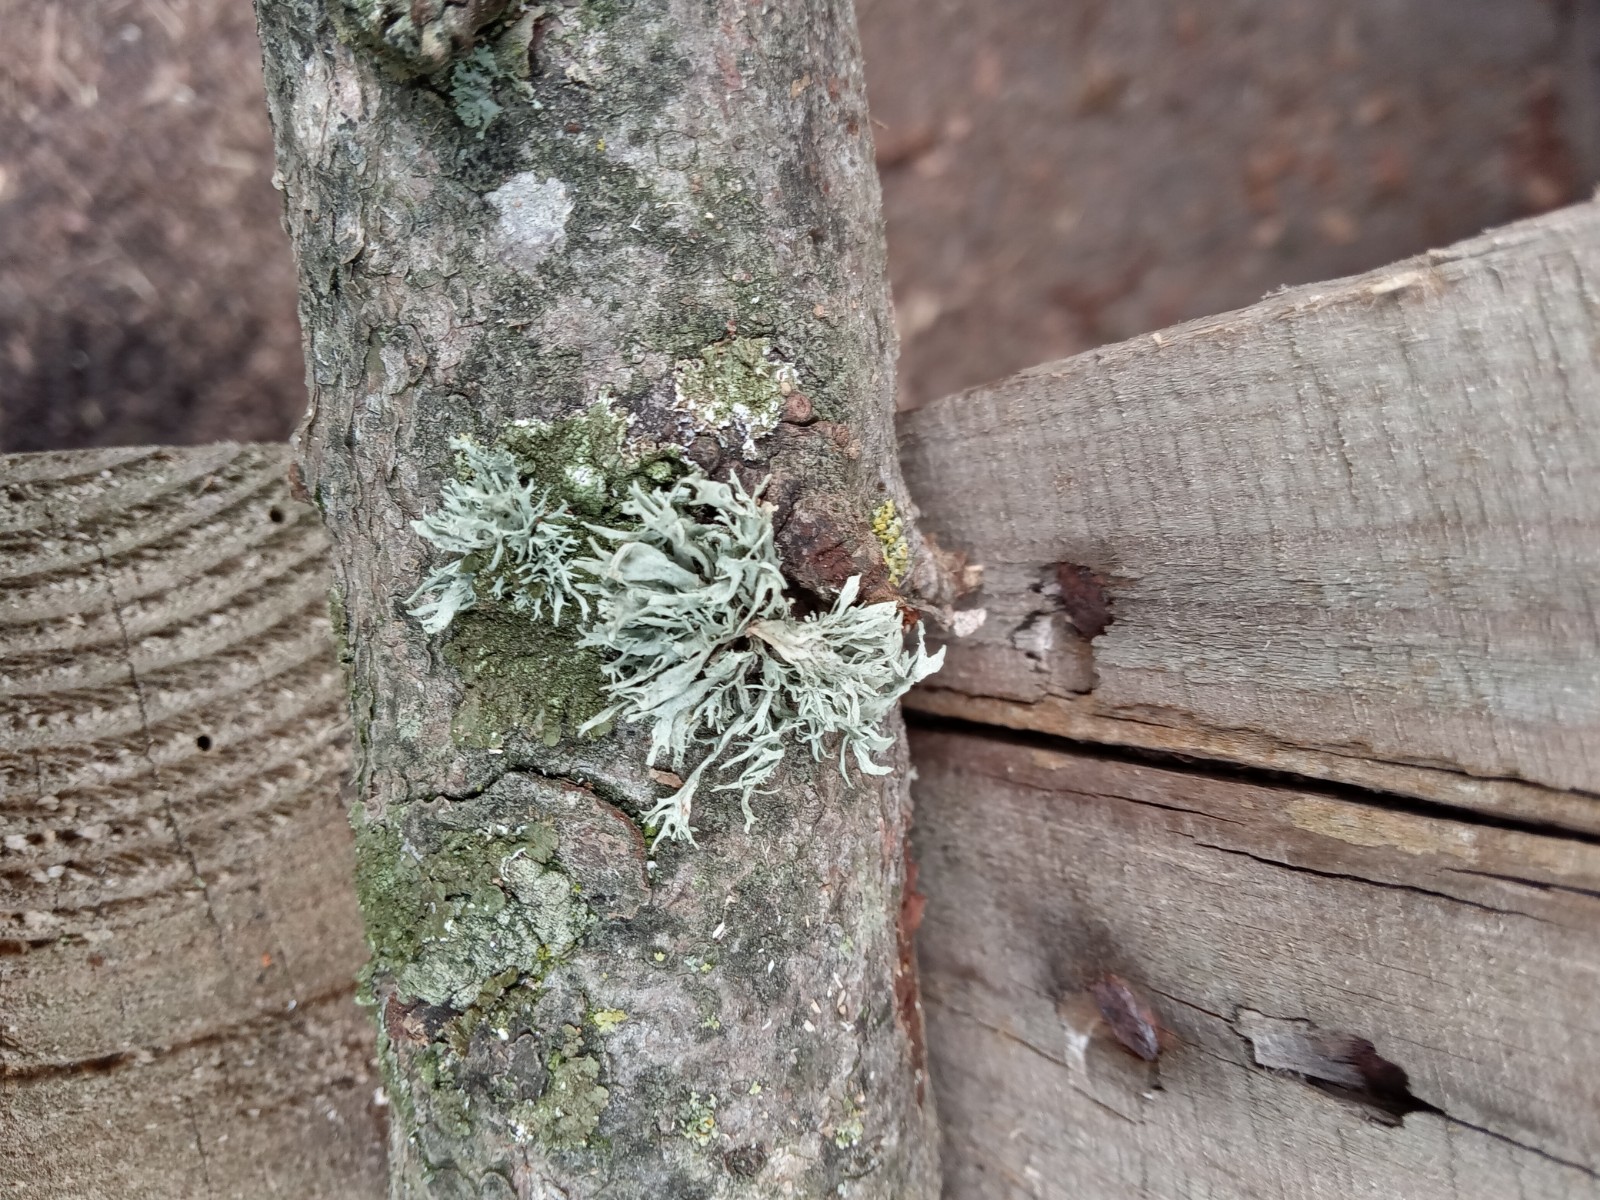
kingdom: Fungi
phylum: Ascomycota
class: Lecanoromycetes
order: Lecanorales
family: Parmeliaceae
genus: Evernia
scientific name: Evernia prunastri
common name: almindelig slåenlav
